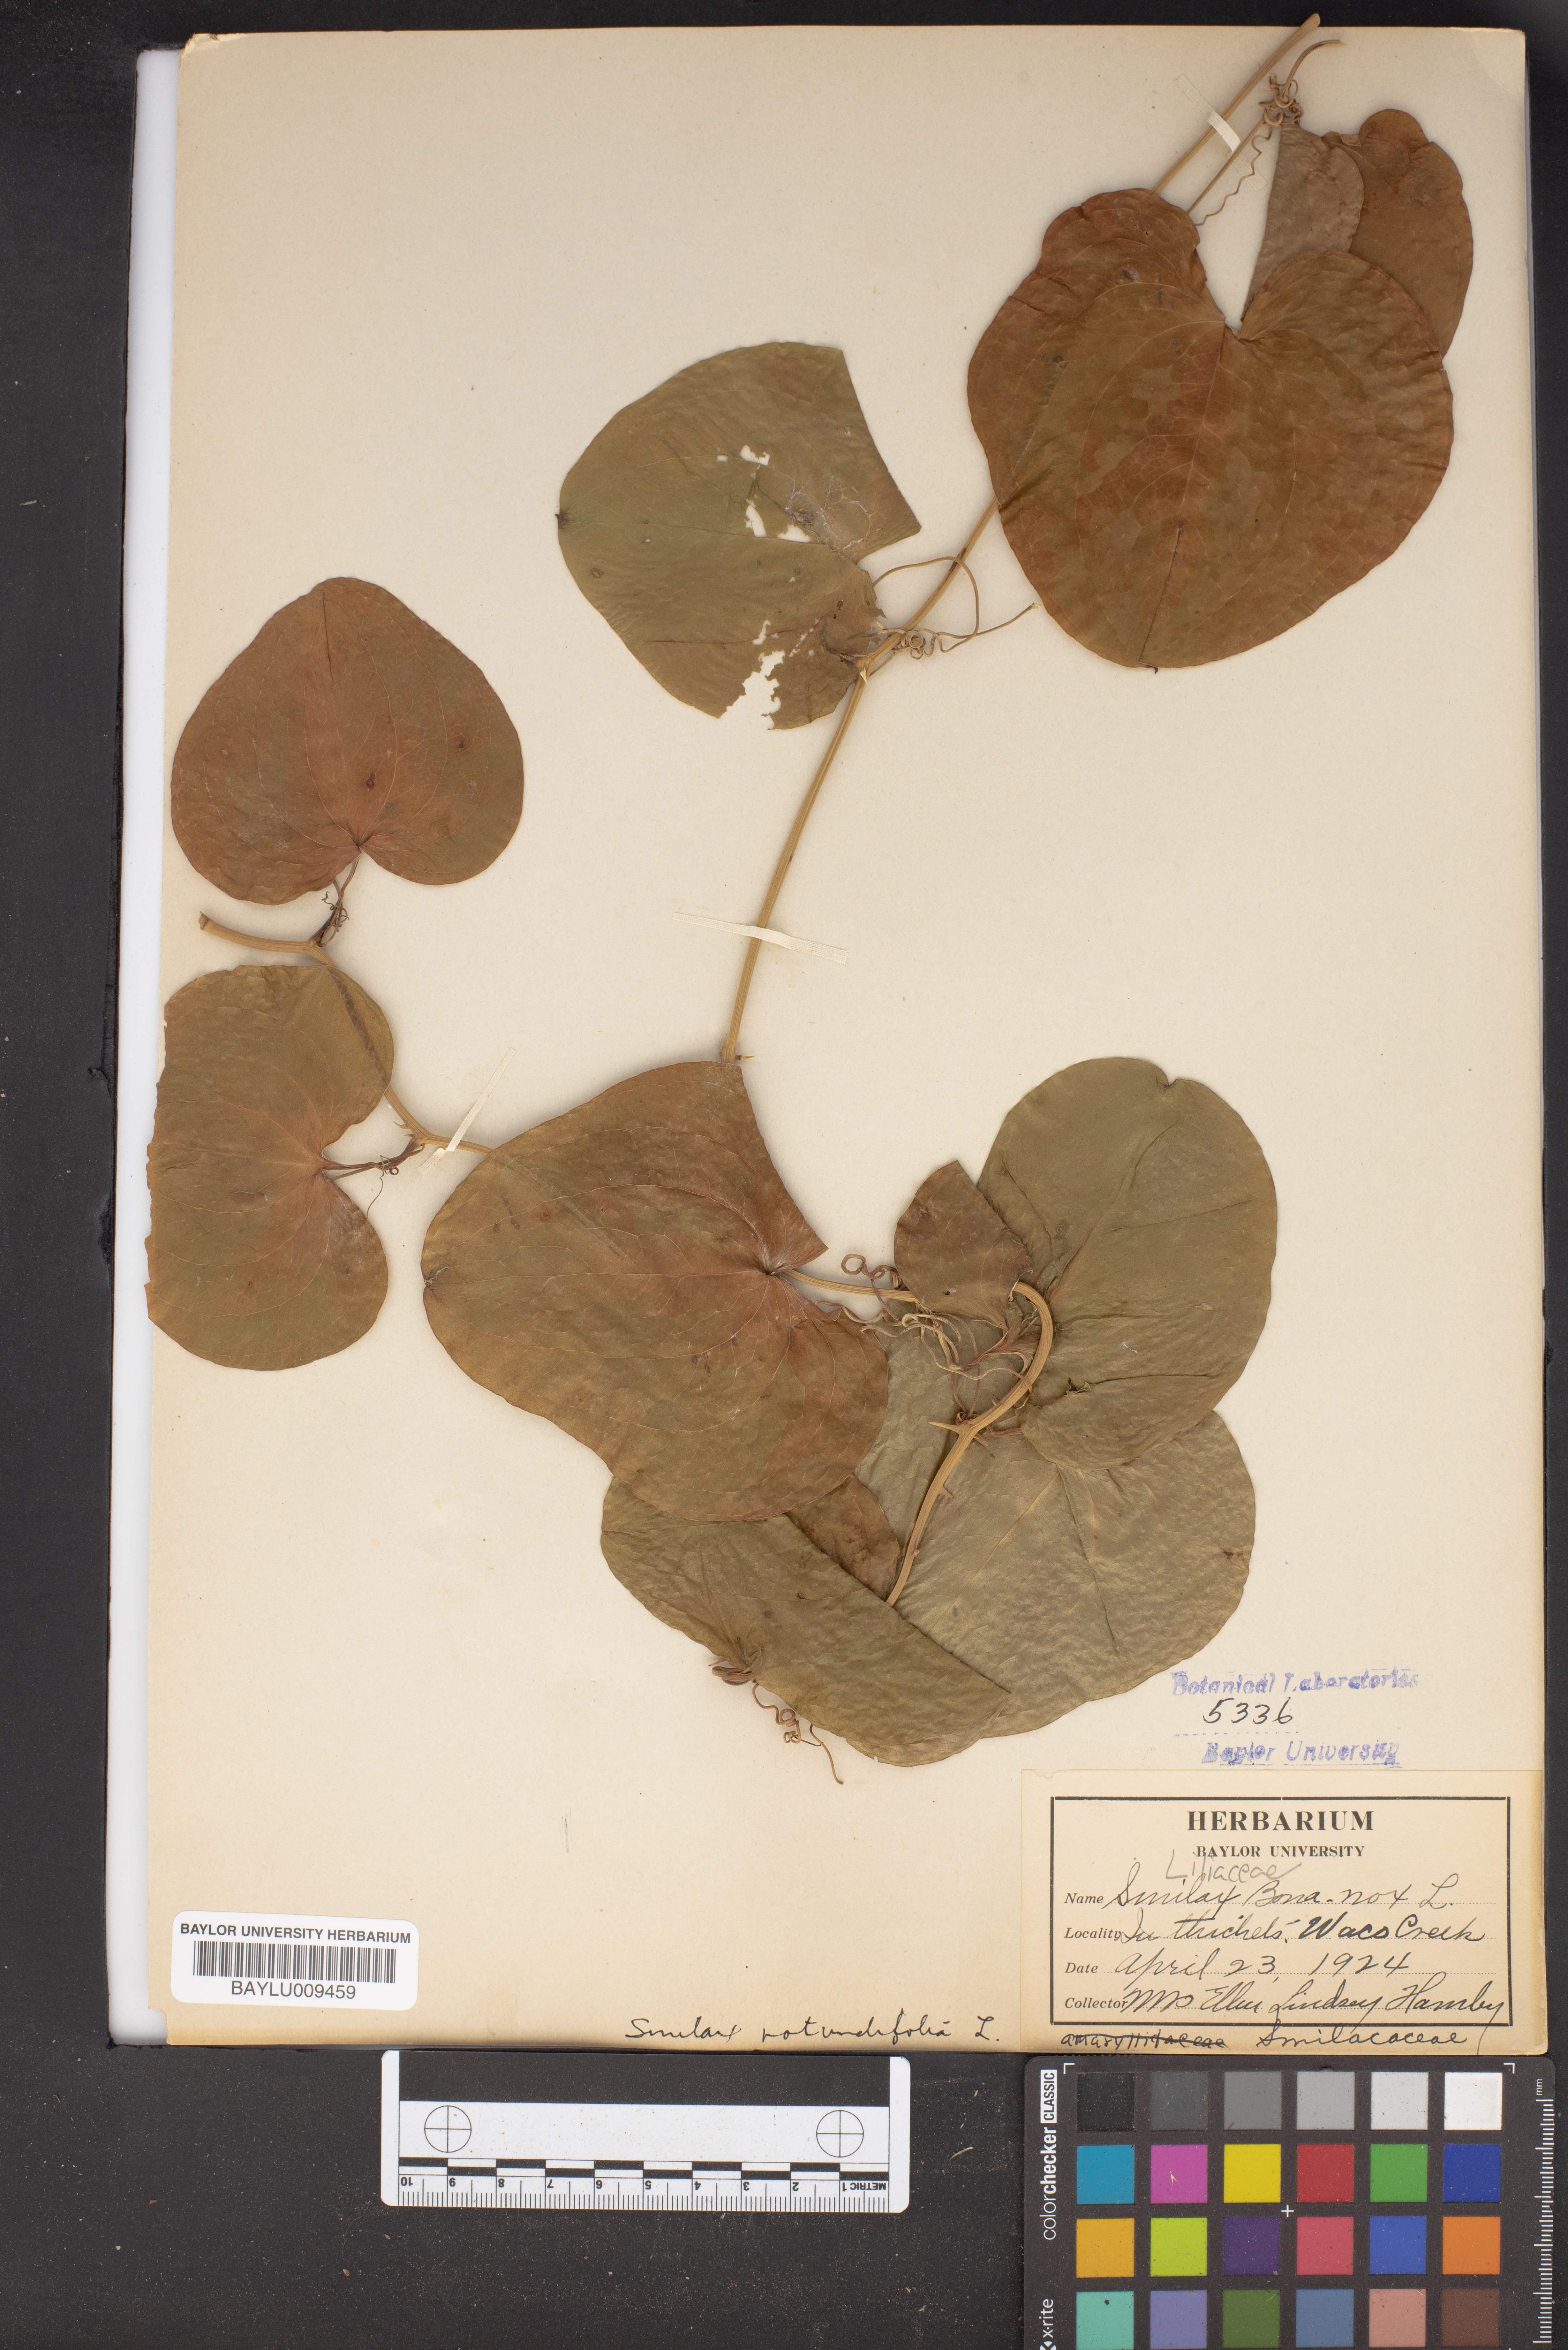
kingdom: Plantae
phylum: Tracheophyta
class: Liliopsida
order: Liliales
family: Smilacaceae
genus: Smilax
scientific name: Smilax bona-nox
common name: Catbrier
